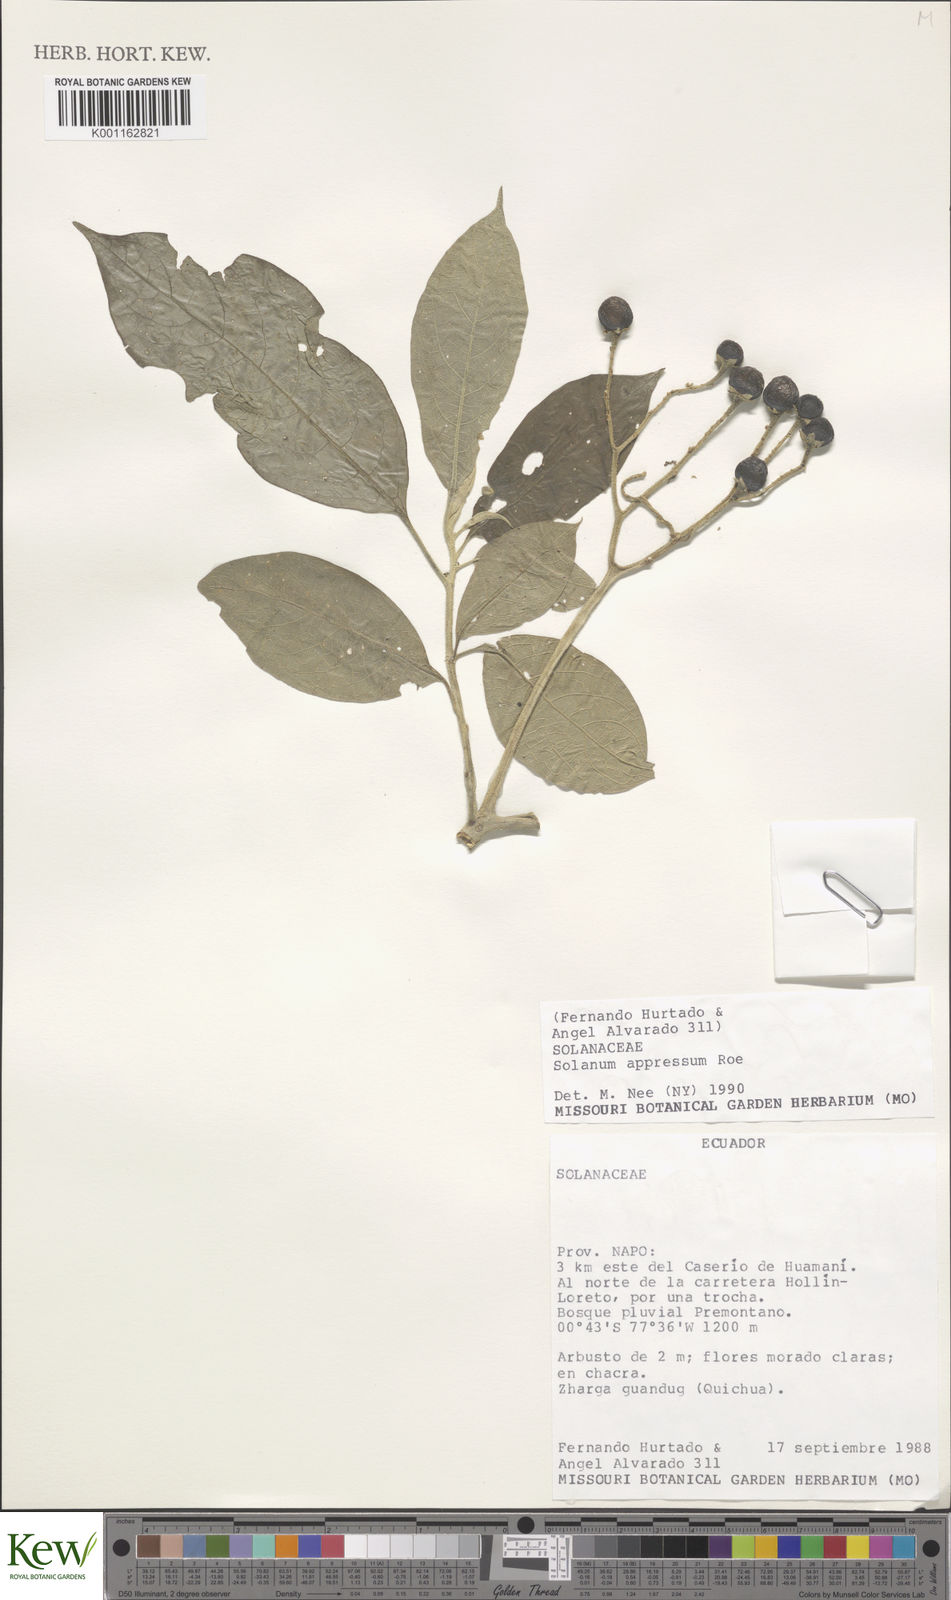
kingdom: Plantae
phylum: Tracheophyta
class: Magnoliopsida
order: Solanales
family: Solanaceae
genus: Solanum
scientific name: Solanum appressum
